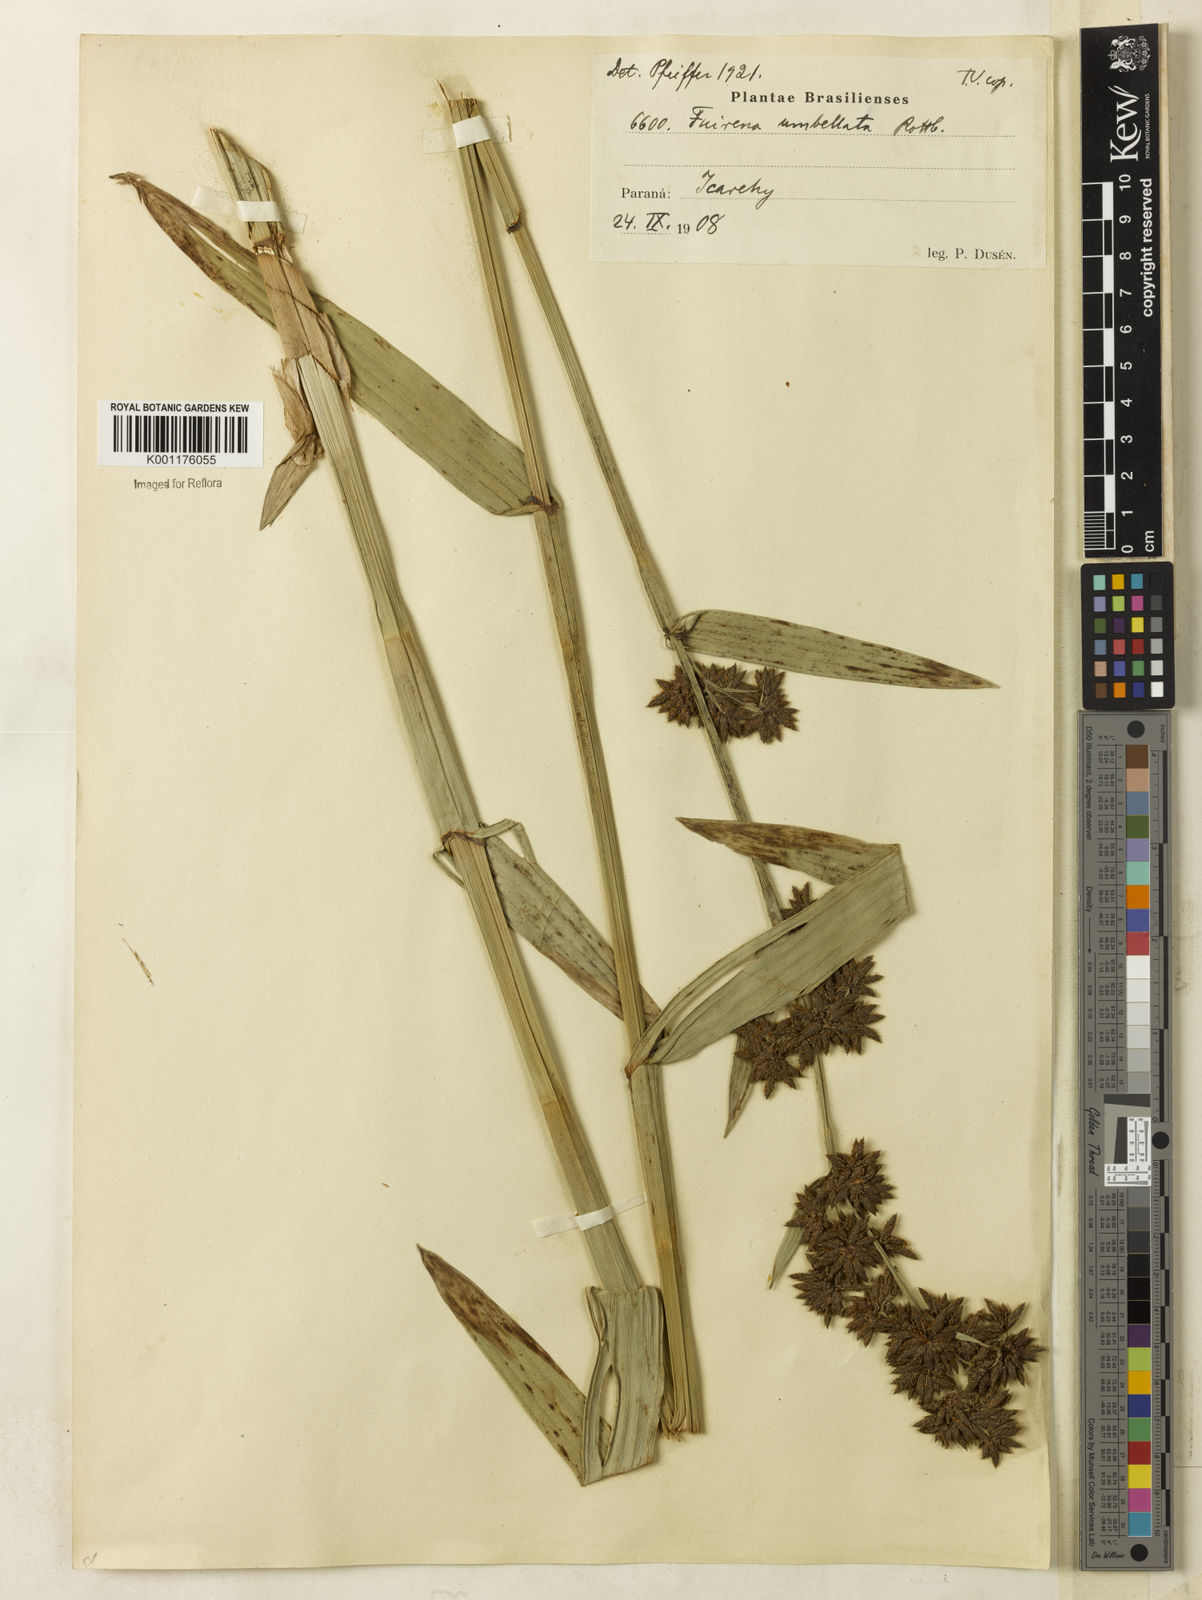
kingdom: Plantae
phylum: Tracheophyta
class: Liliopsida
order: Poales
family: Cyperaceae
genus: Fuirena
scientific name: Fuirena umbellata
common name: Yefen
